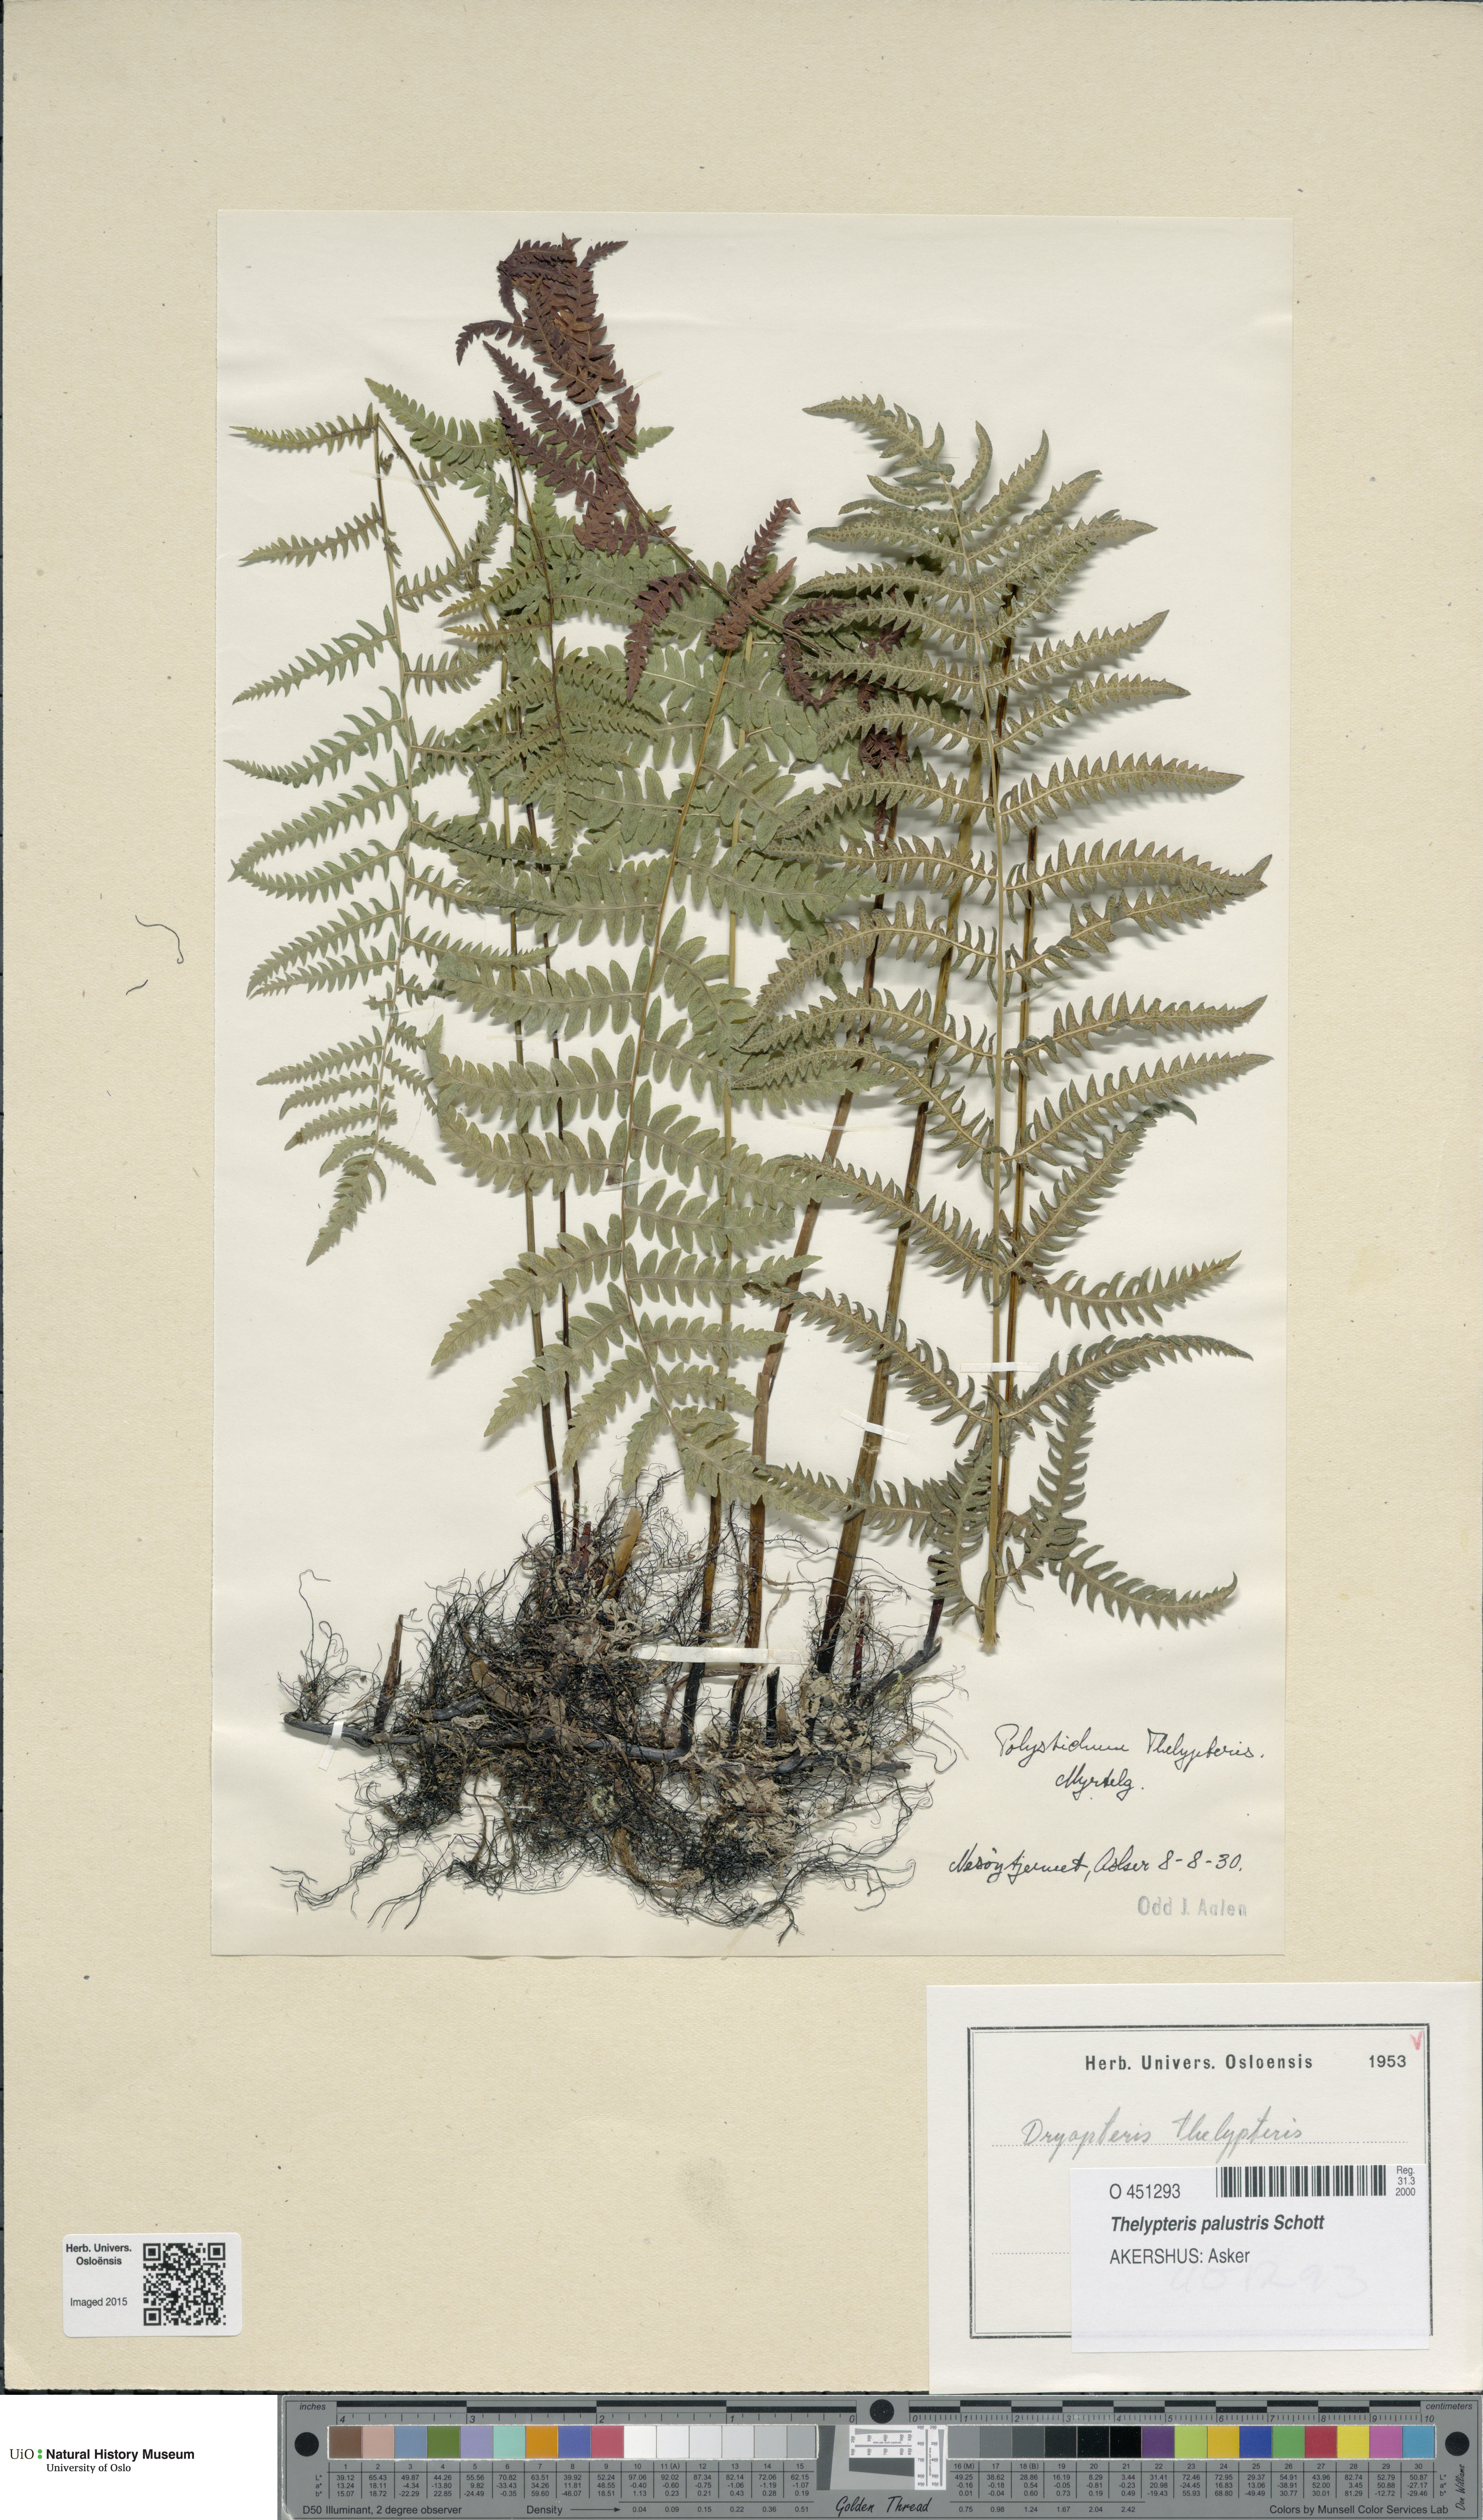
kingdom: Plantae
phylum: Tracheophyta
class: Polypodiopsida
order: Polypodiales
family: Thelypteridaceae
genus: Thelypteris
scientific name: Thelypteris palustris
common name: Marsh fern
